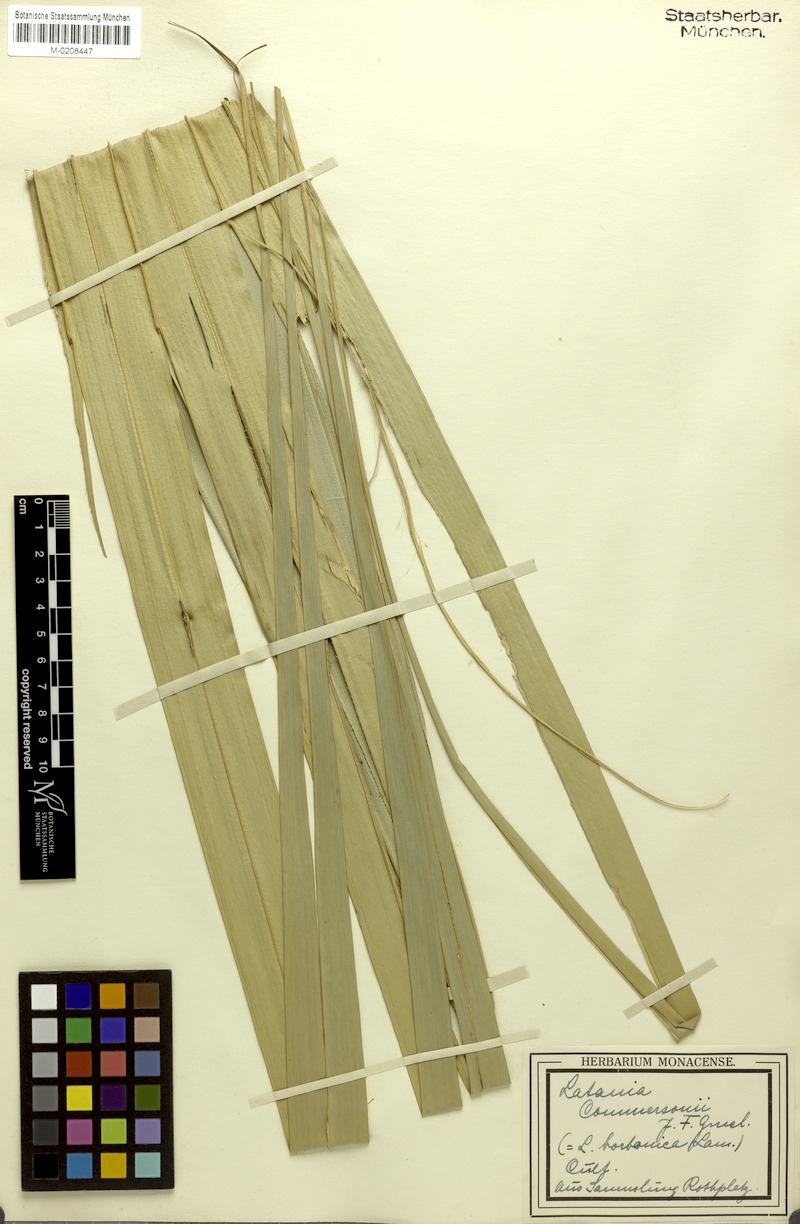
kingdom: Plantae
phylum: Tracheophyta
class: Liliopsida
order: Arecales
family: Arecaceae
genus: Latania
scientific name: Latania lontaroides
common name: Red latan
